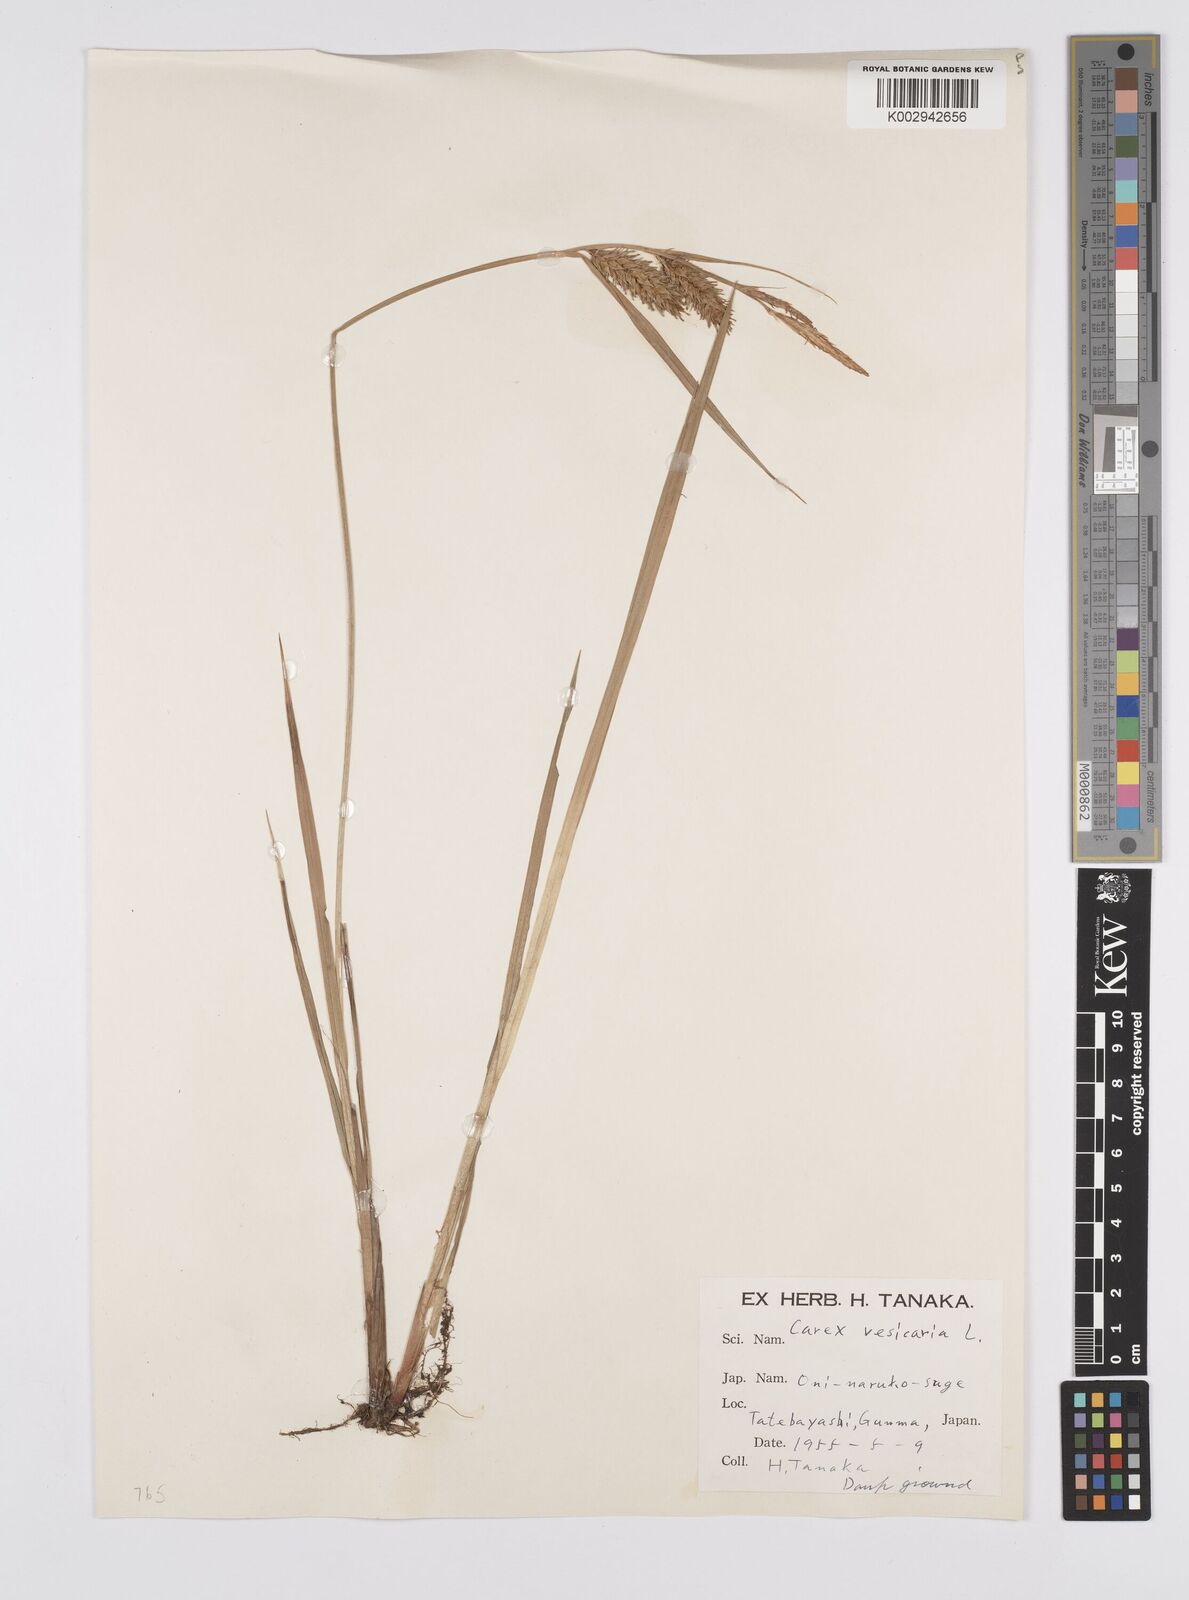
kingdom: Plantae
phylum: Tracheophyta
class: Liliopsida
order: Poales
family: Cyperaceae
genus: Carex
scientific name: Carex vesicaria
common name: Bladder-sedge
